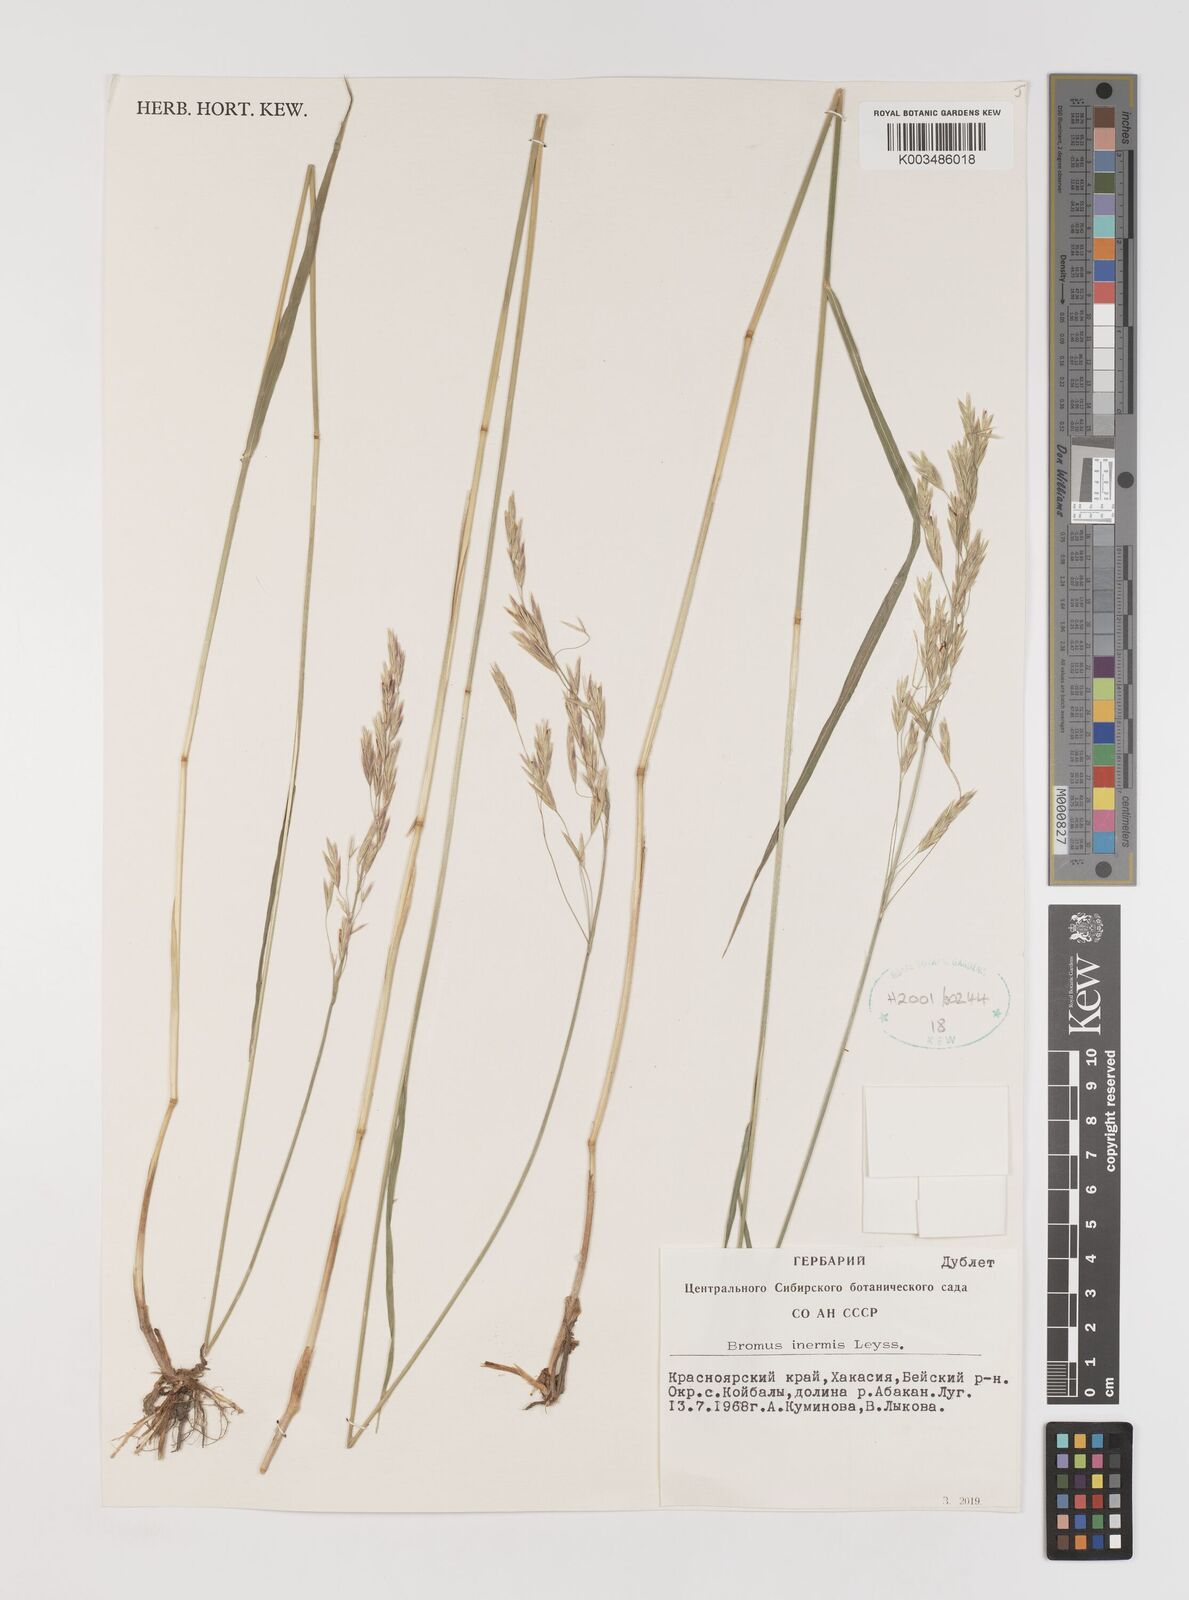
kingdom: Plantae
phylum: Tracheophyta
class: Liliopsida
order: Poales
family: Poaceae
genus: Bromus
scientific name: Bromus inermis
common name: Smooth brome
